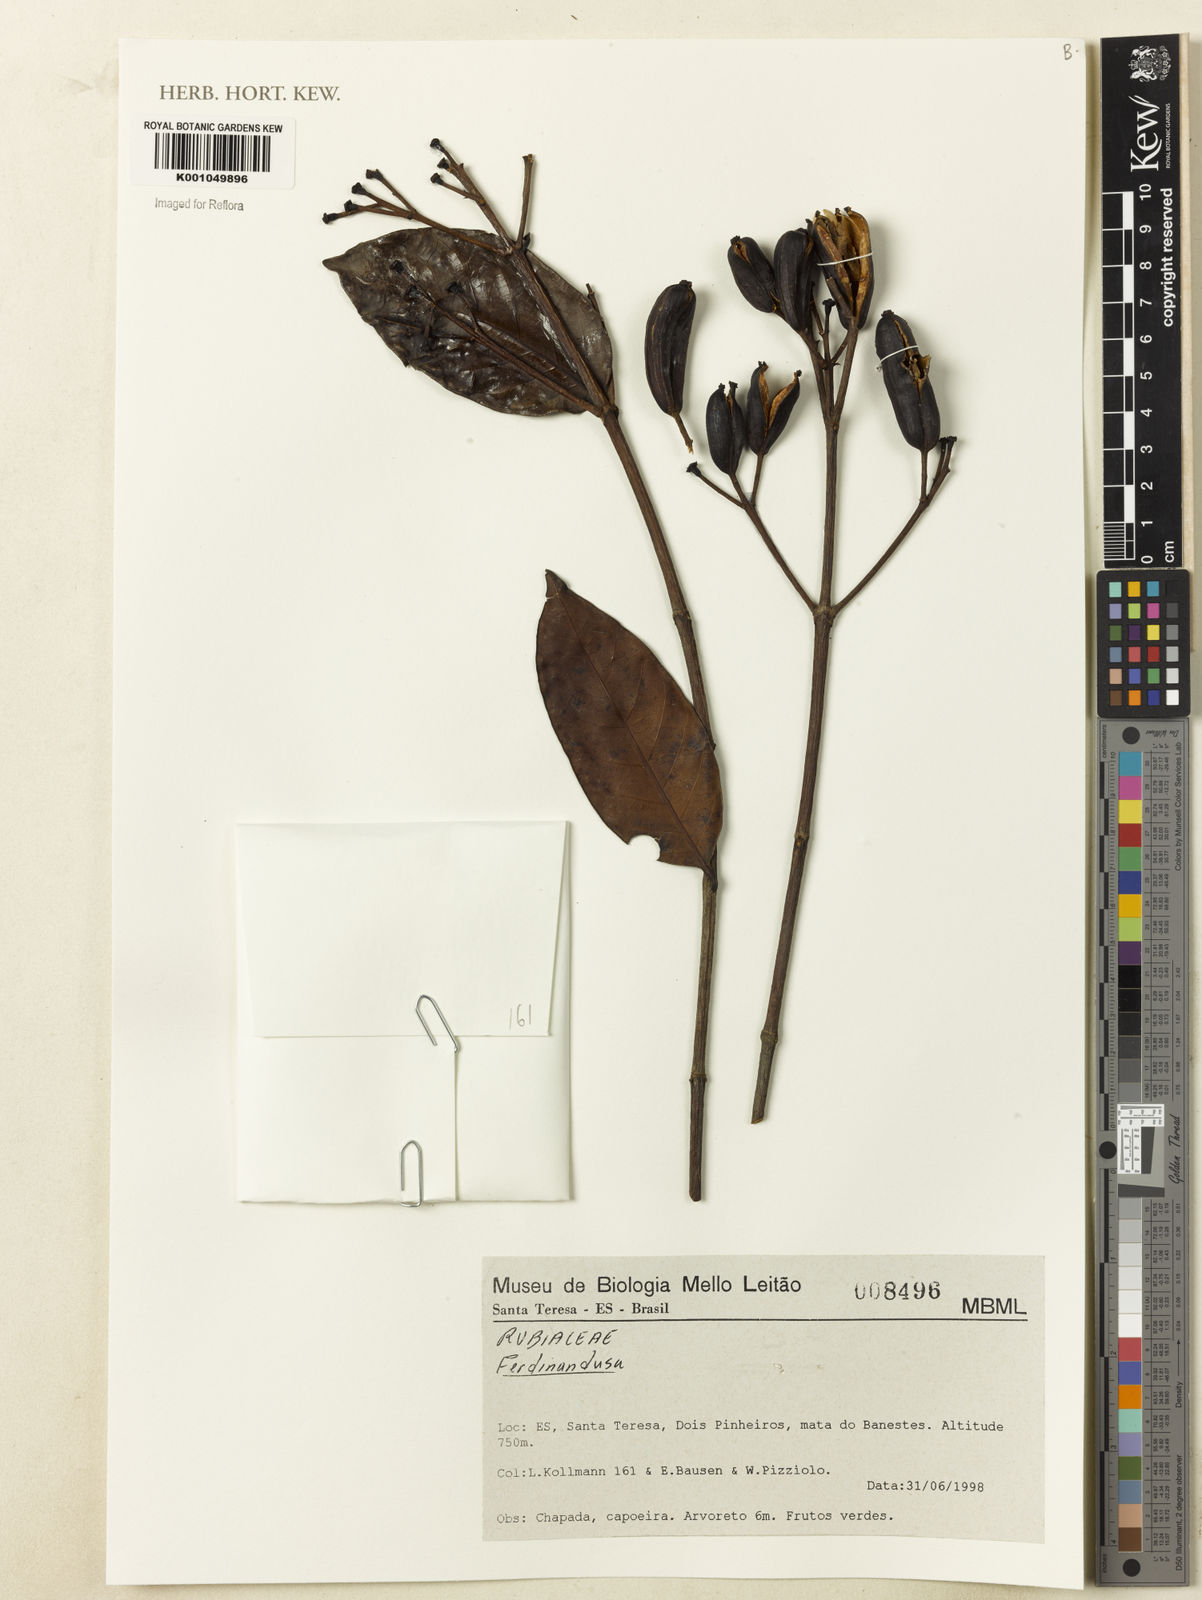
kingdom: Plantae
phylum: Tracheophyta
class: Magnoliopsida
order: Gentianales
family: Rubiaceae
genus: Ferdinandusa
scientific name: Ferdinandusa
